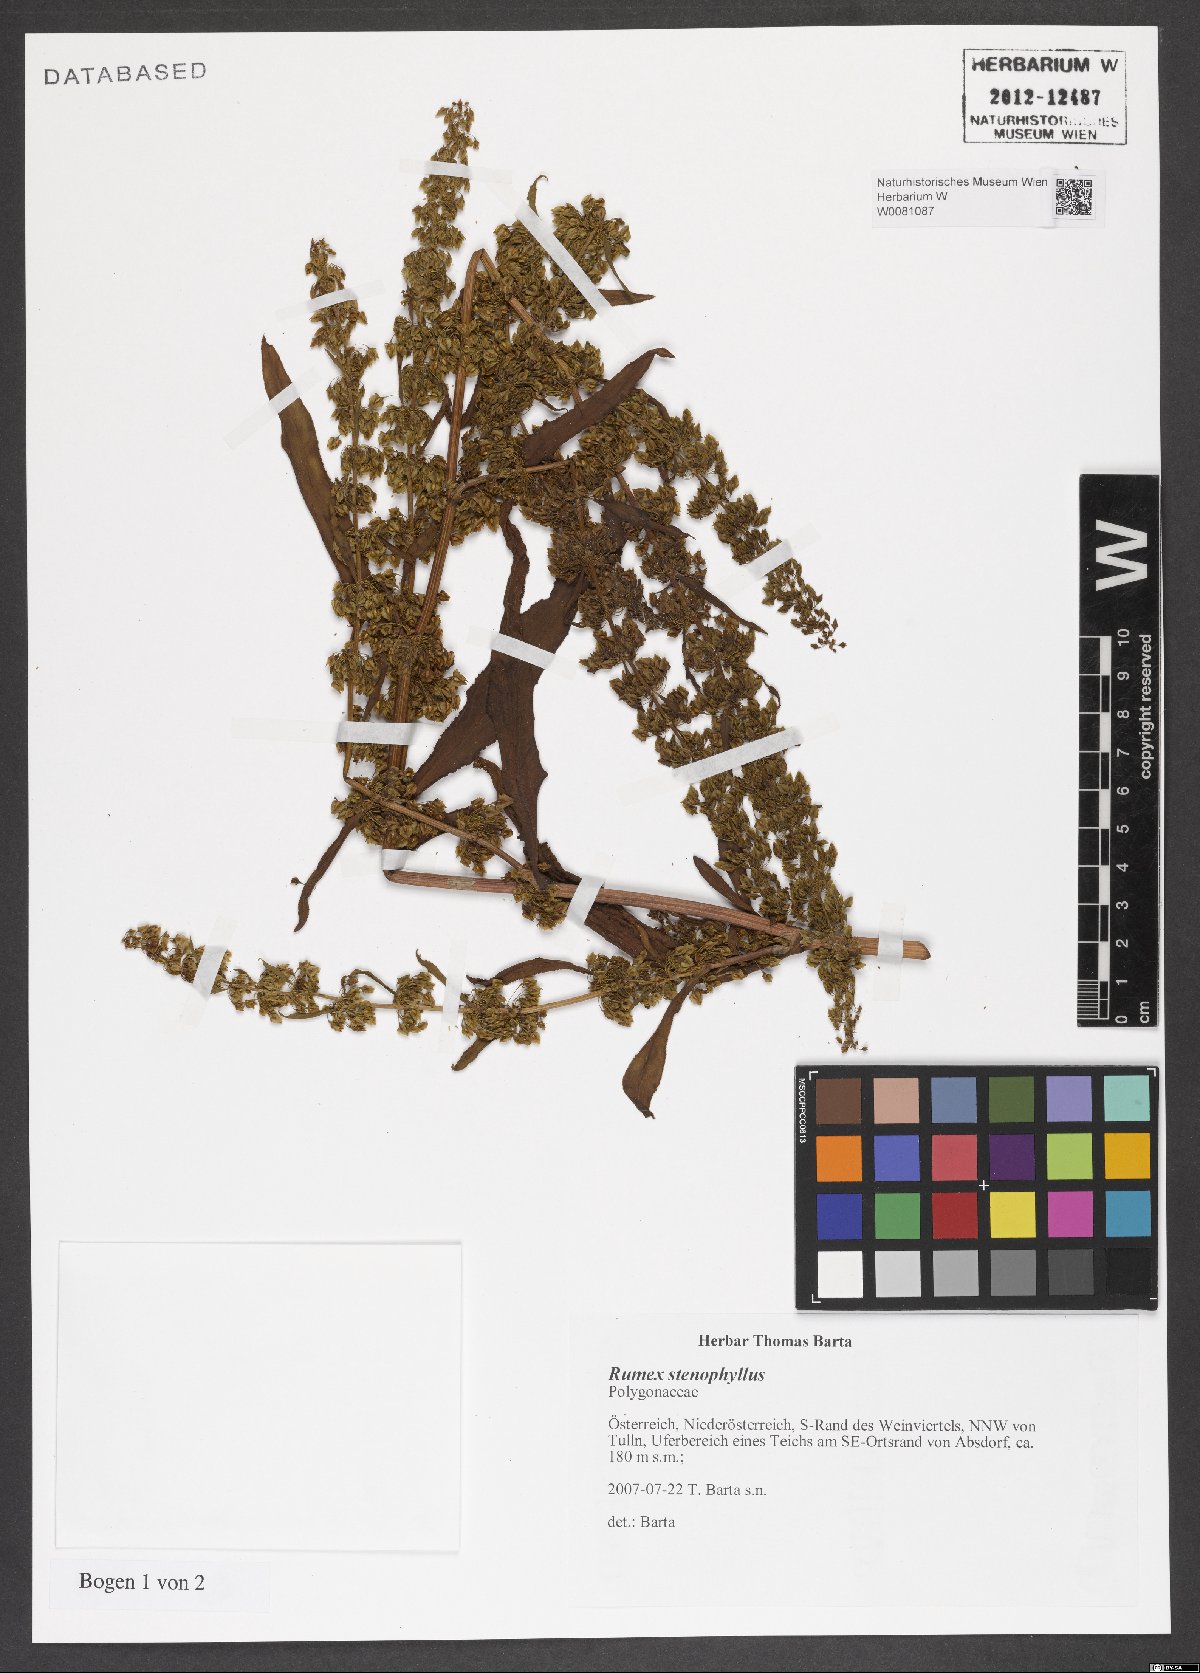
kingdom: Plantae
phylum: Tracheophyta
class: Magnoliopsida
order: Caryophyllales
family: Polygonaceae
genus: Rumex
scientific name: Rumex stenophyllus
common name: Narrowleaf dock
